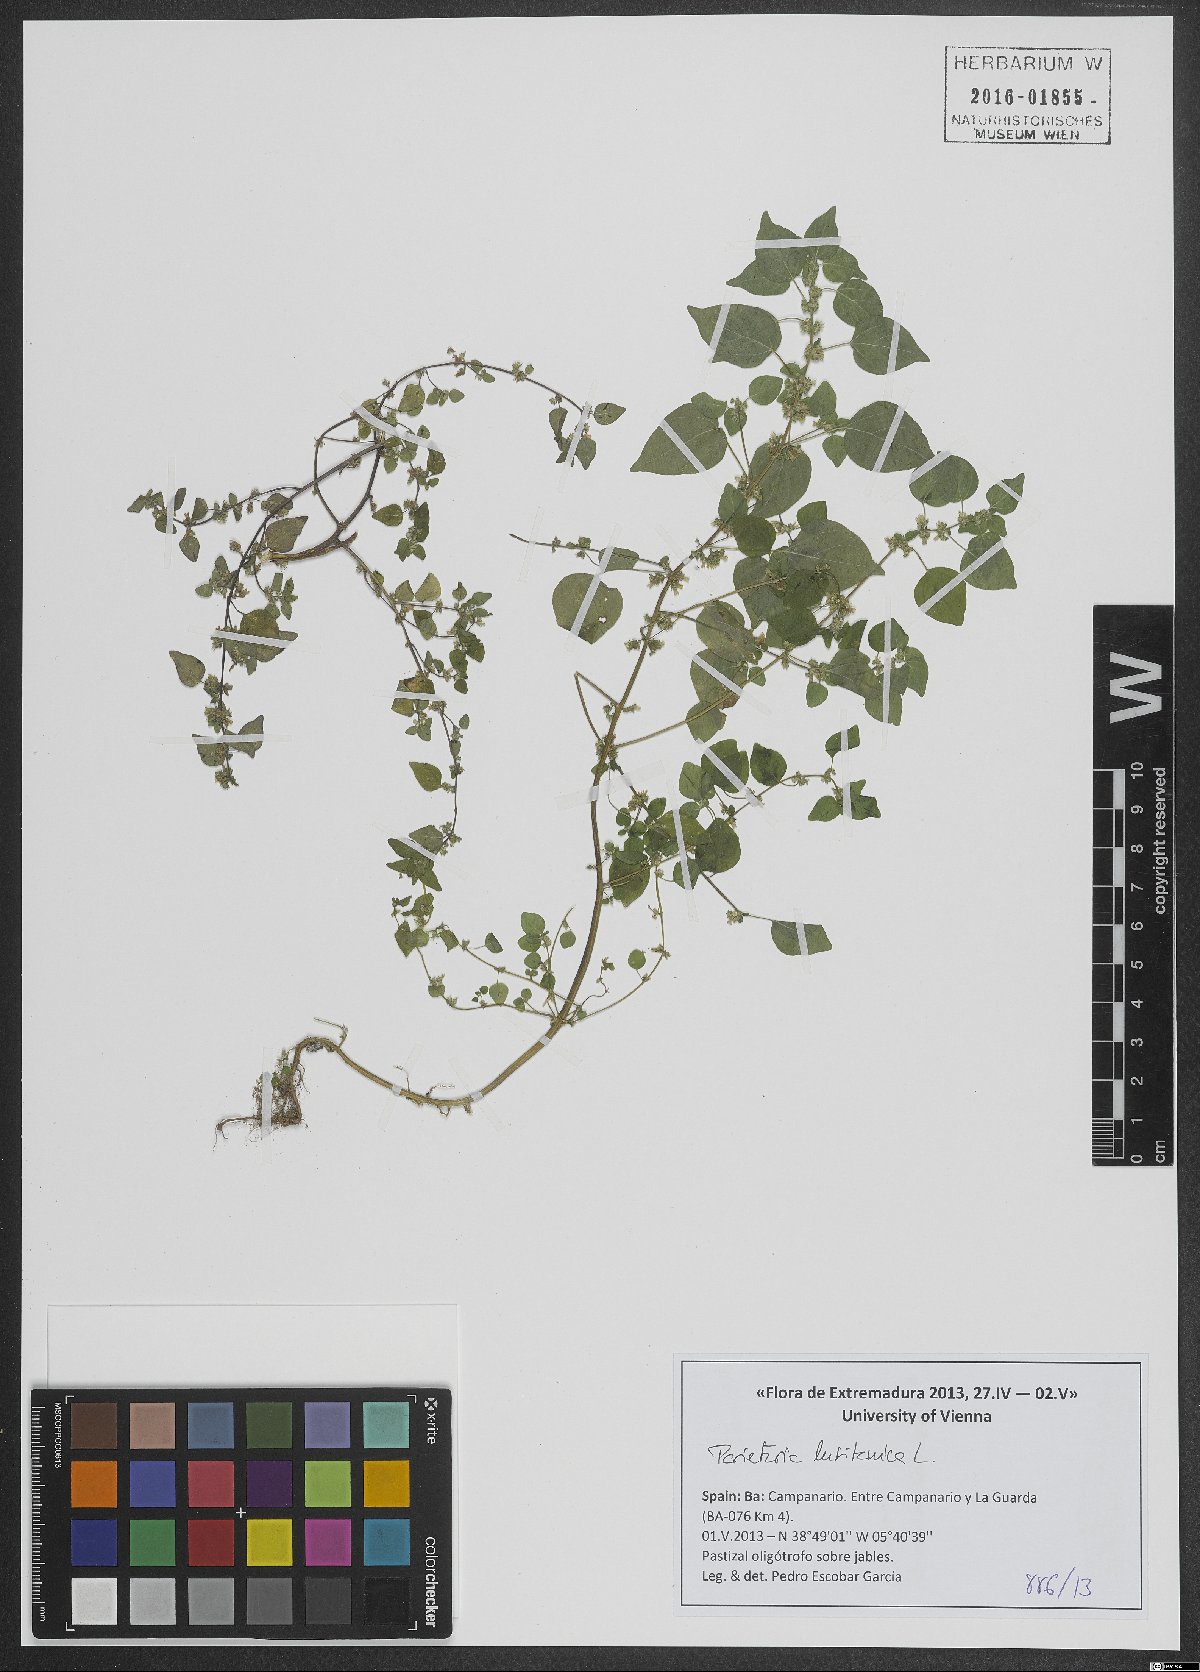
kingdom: Plantae
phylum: Tracheophyta
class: Magnoliopsida
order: Rosales
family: Urticaceae
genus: Parietaria
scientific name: Parietaria lusitanica
